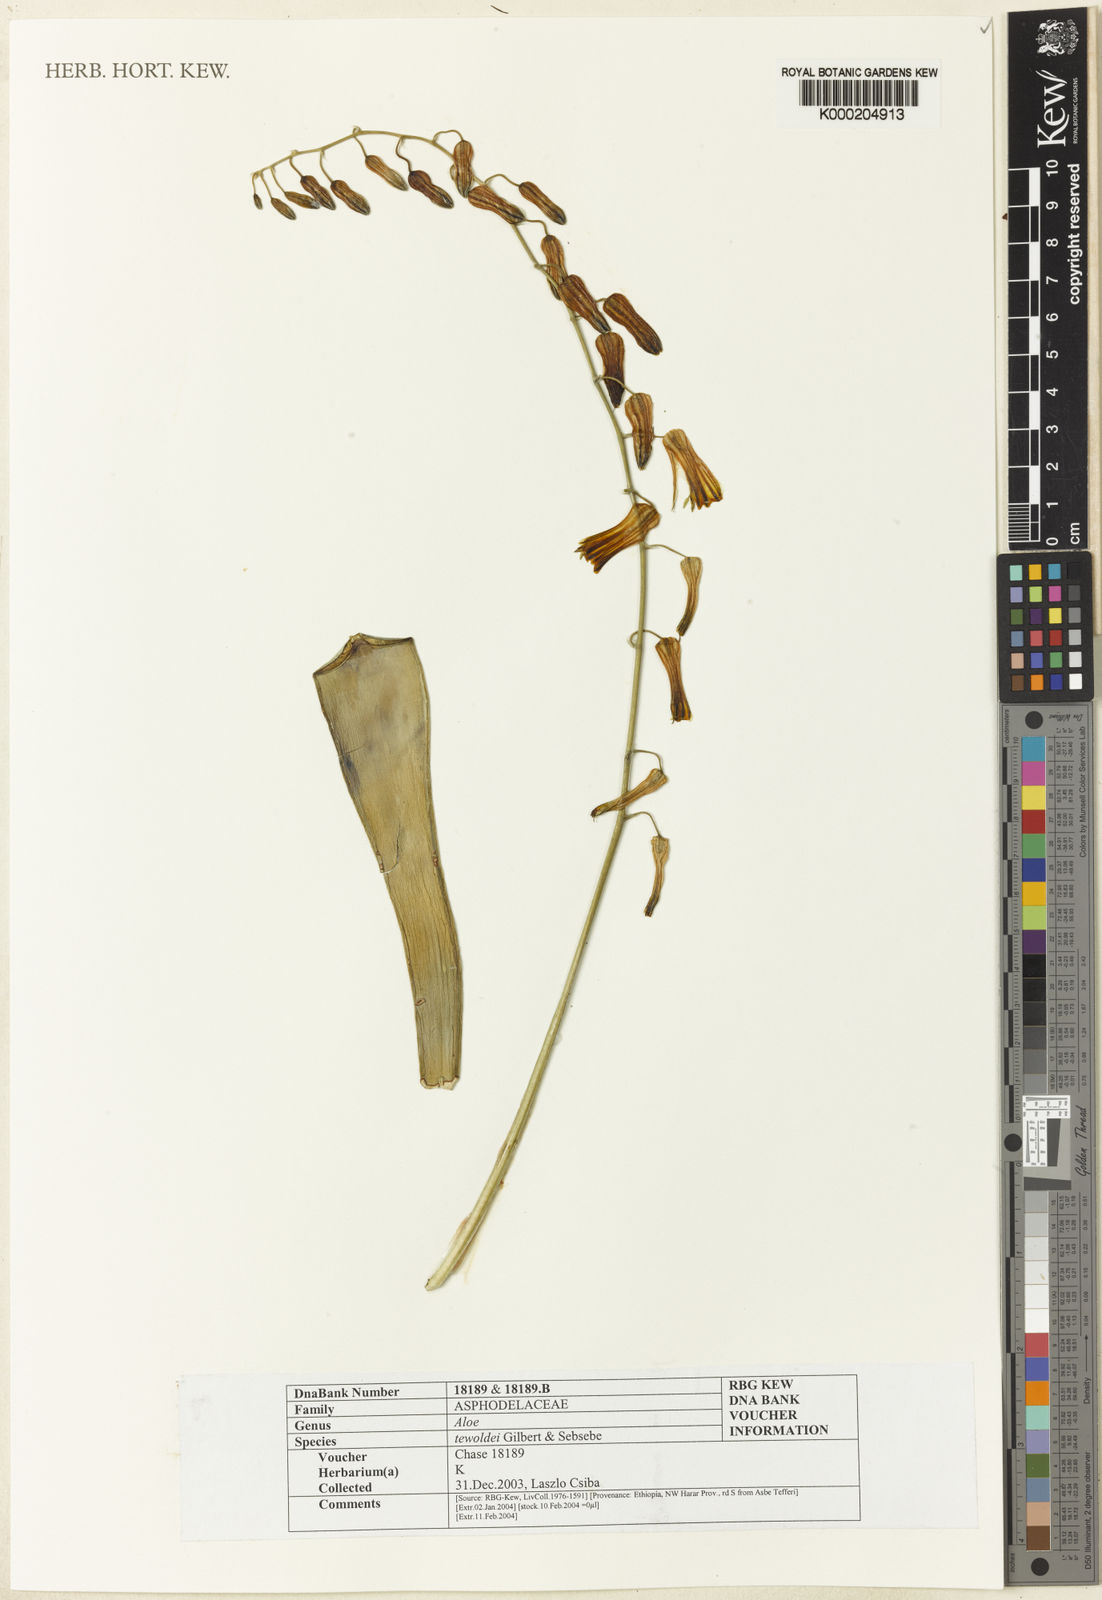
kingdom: Plantae
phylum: Tracheophyta
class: Liliopsida
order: Asparagales
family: Asphodelaceae
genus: Aloe
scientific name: Aloe tewoldei
